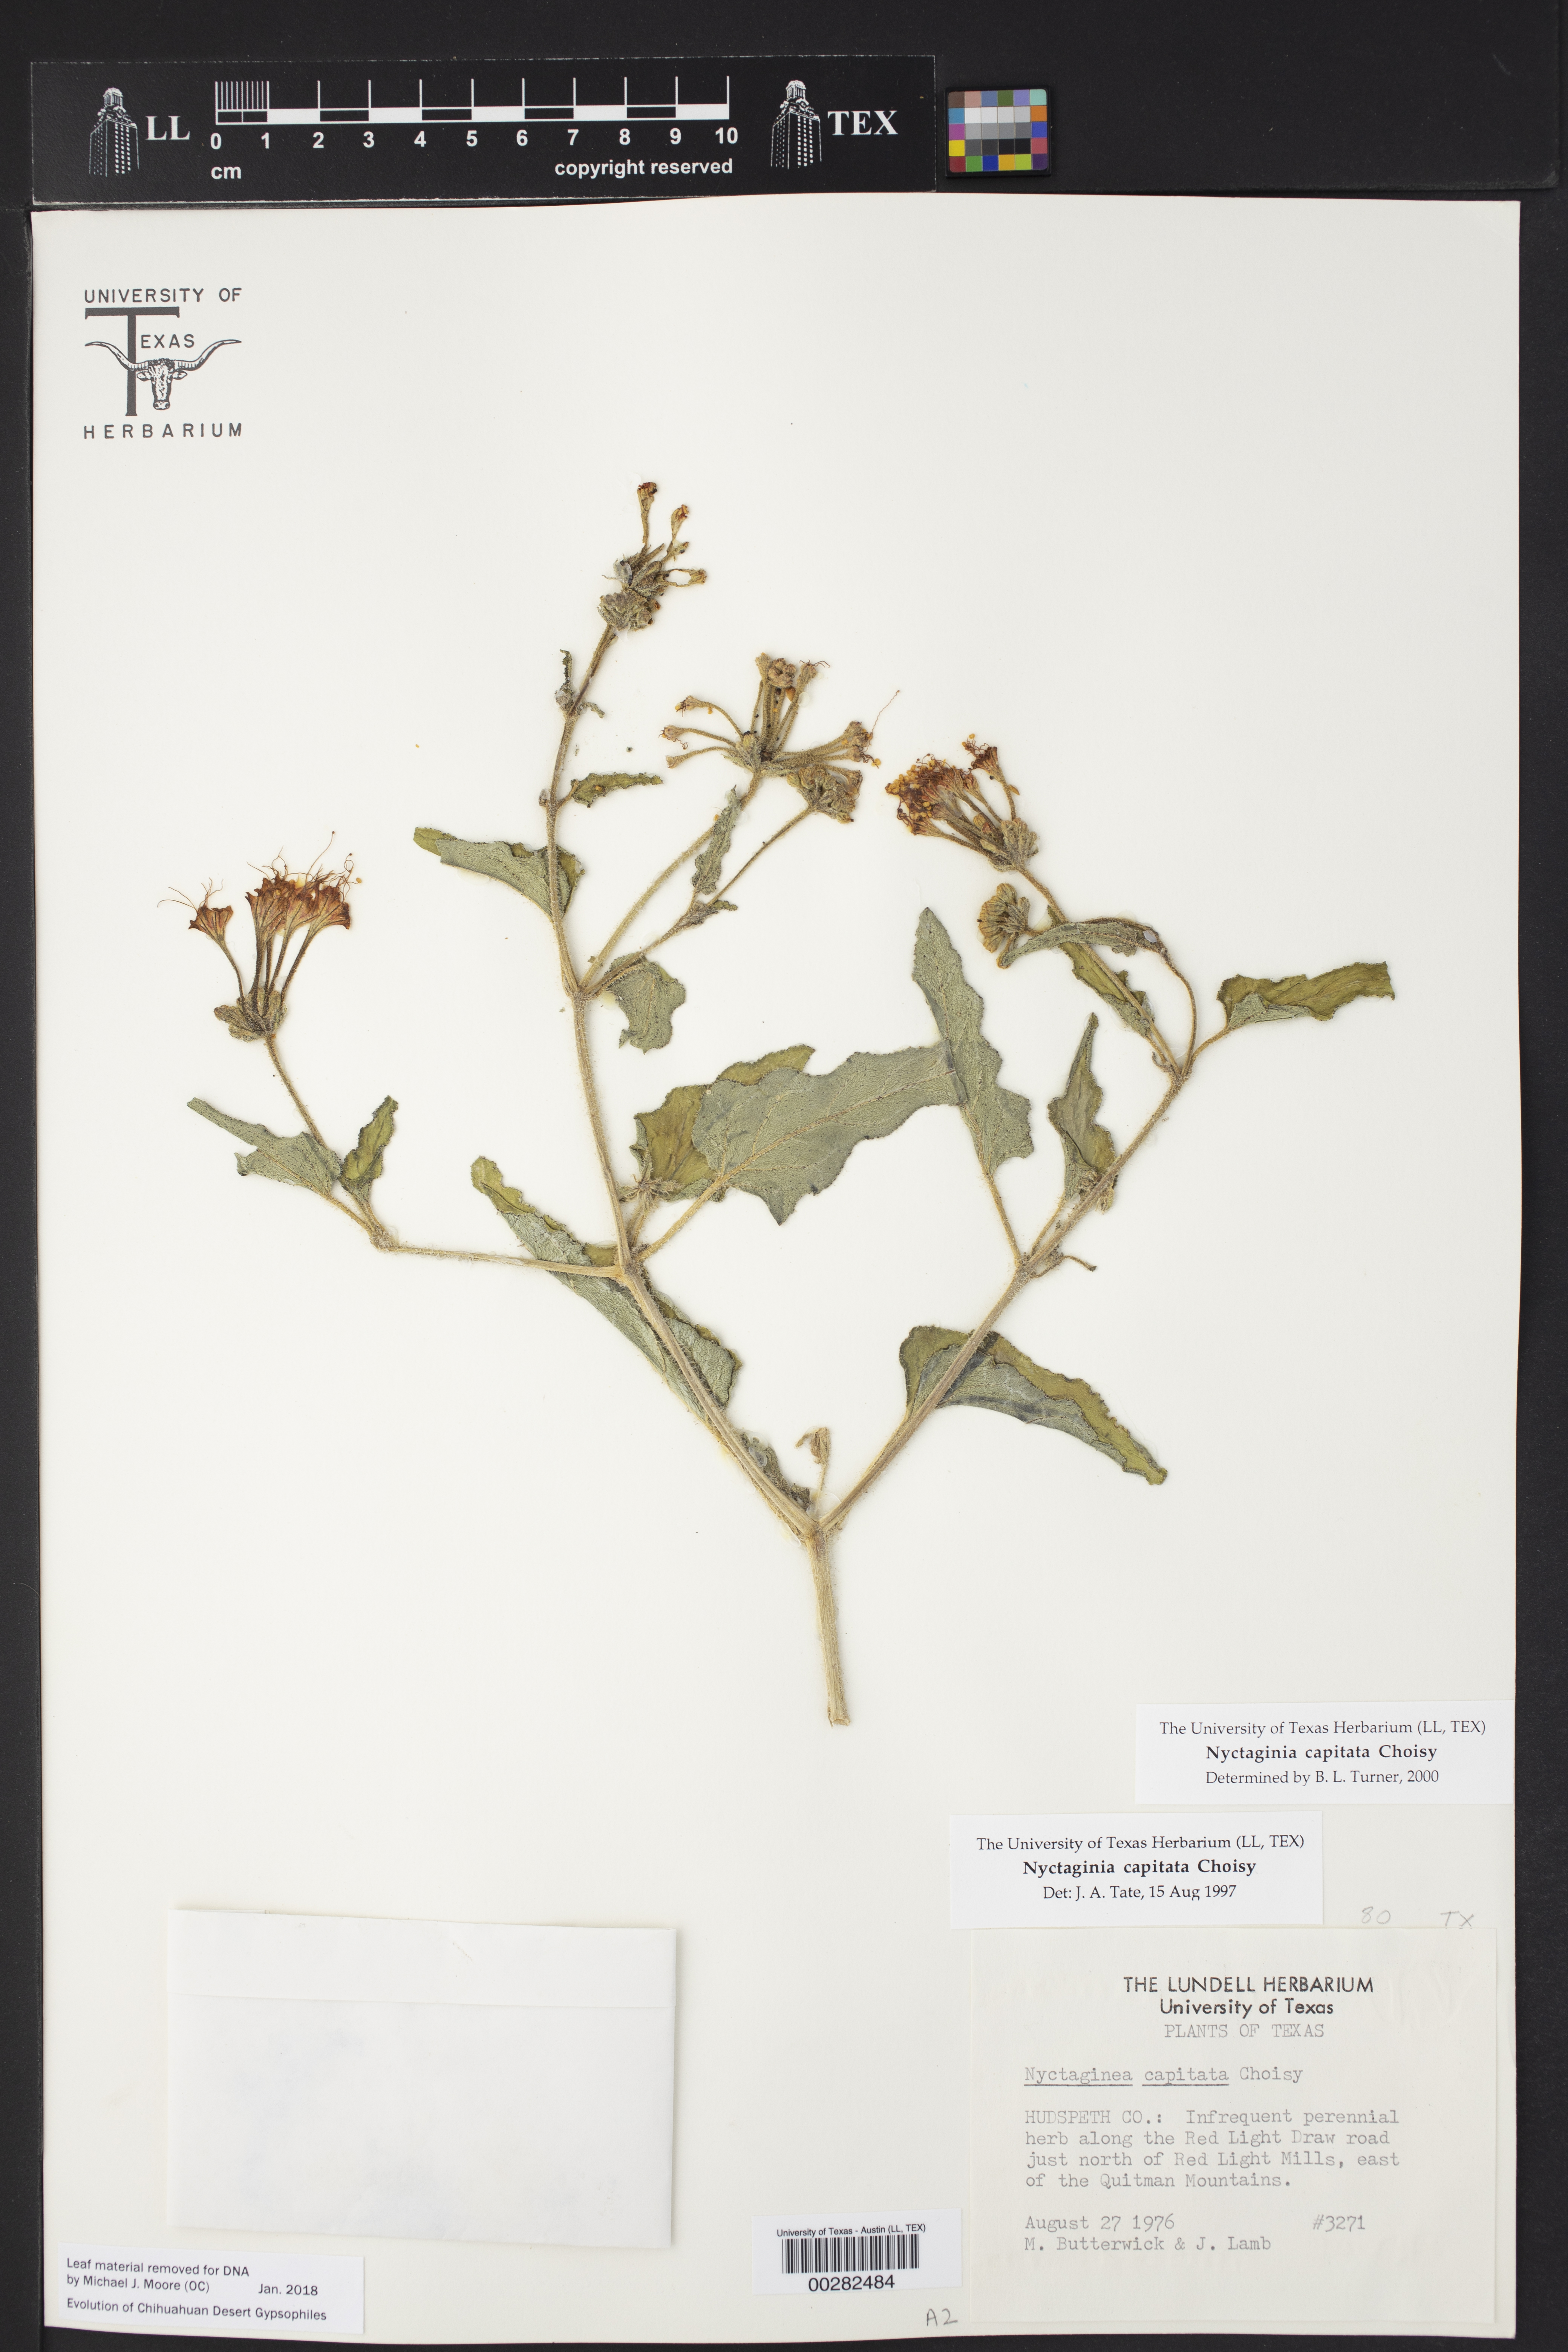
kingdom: Plantae
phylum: Tracheophyta
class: Magnoliopsida
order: Caryophyllales
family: Nyctaginaceae
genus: Nyctaginia
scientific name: Nyctaginia capitata
